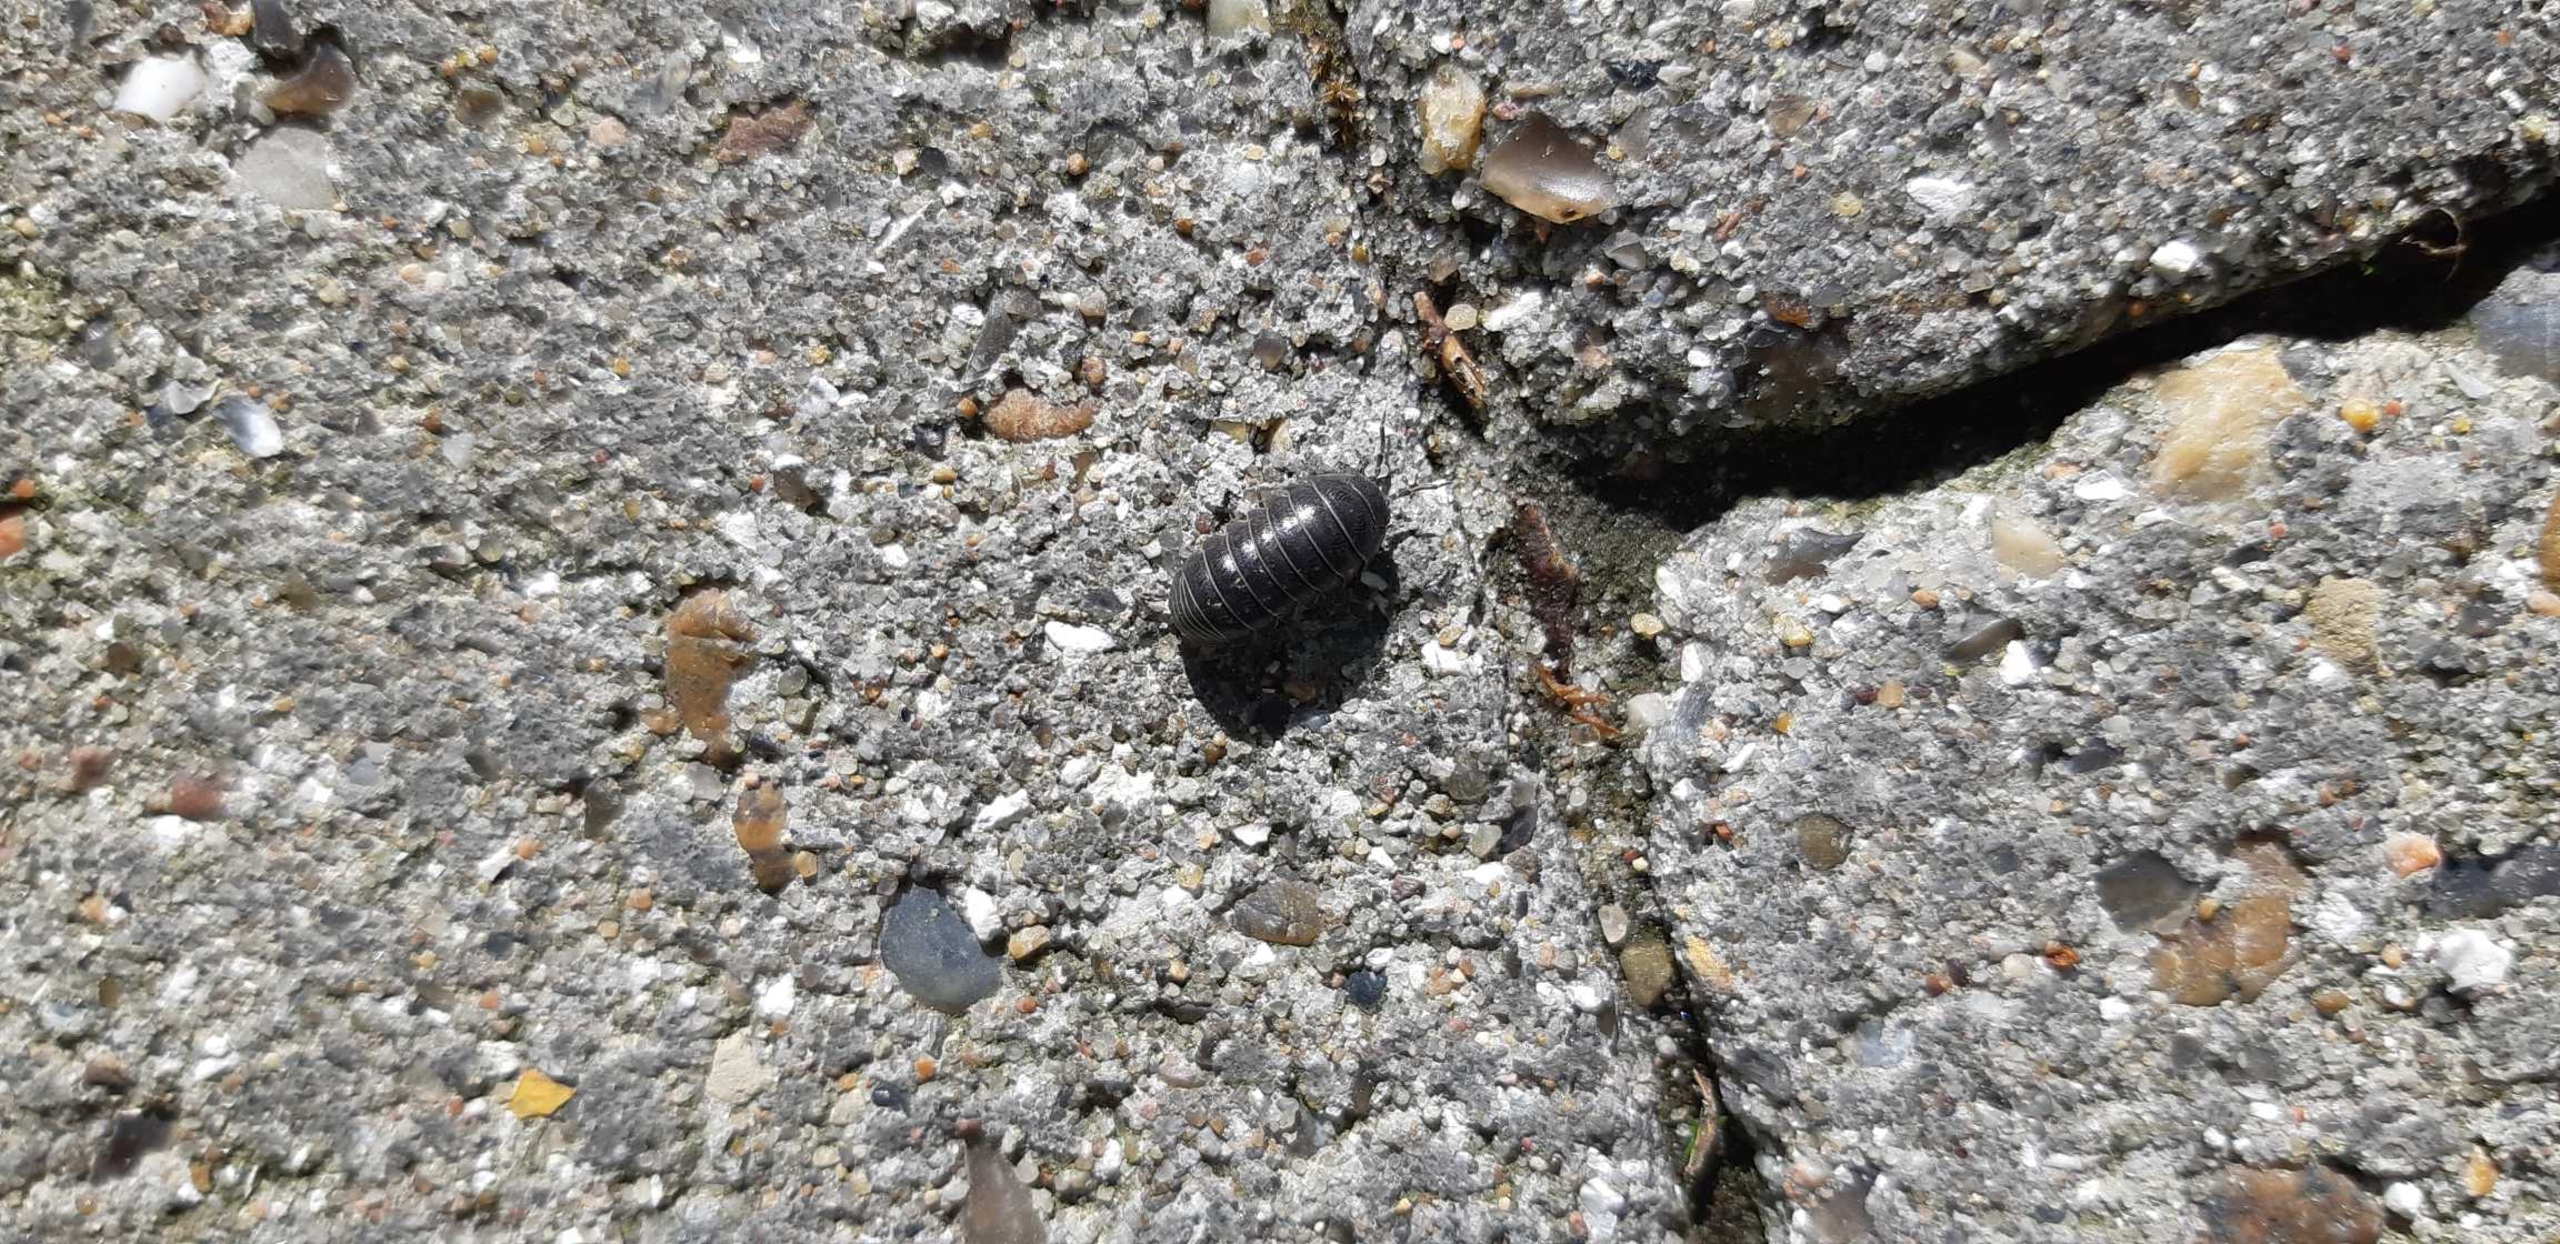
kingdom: Animalia
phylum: Arthropoda
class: Malacostraca
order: Isopoda
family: Armadillidiidae
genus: Armadillidium
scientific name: Armadillidium vulgare
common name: Almindelig kuglebænkebider
